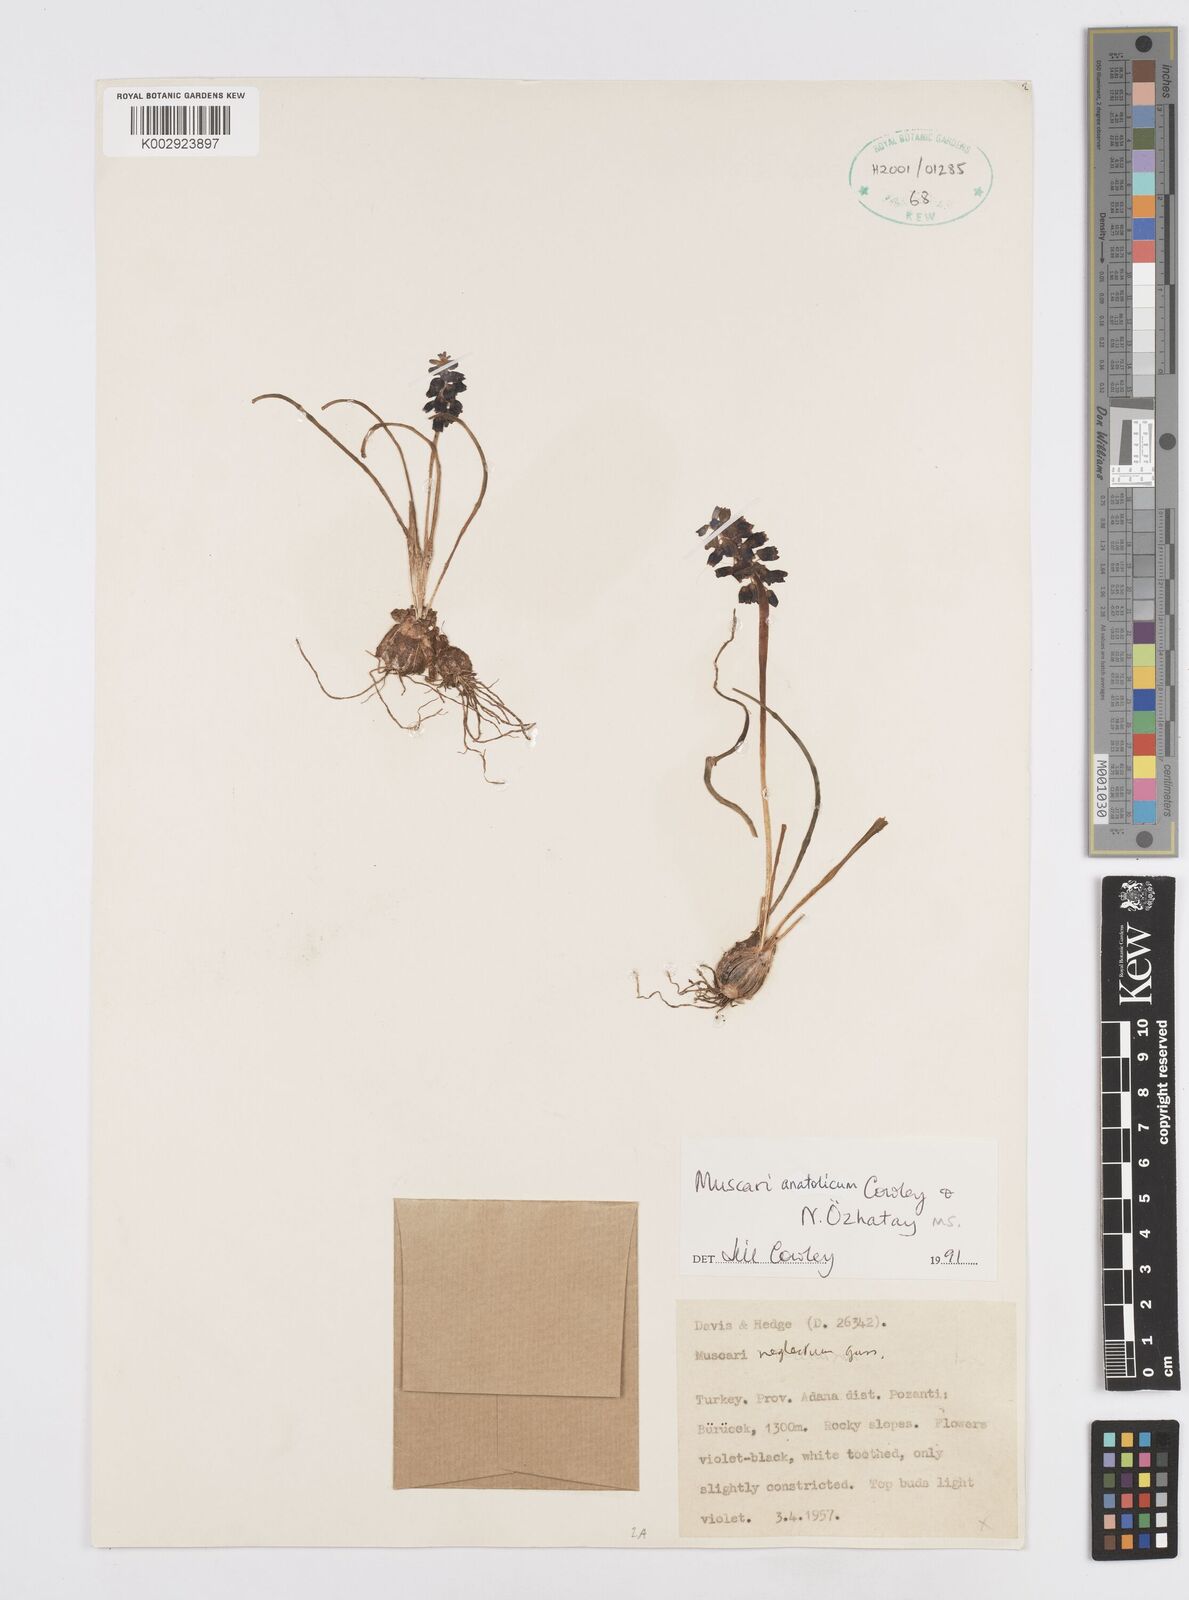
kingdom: Plantae
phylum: Tracheophyta
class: Liliopsida
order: Asparagales
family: Asparagaceae
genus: Muscari
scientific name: Muscari anatolicum
